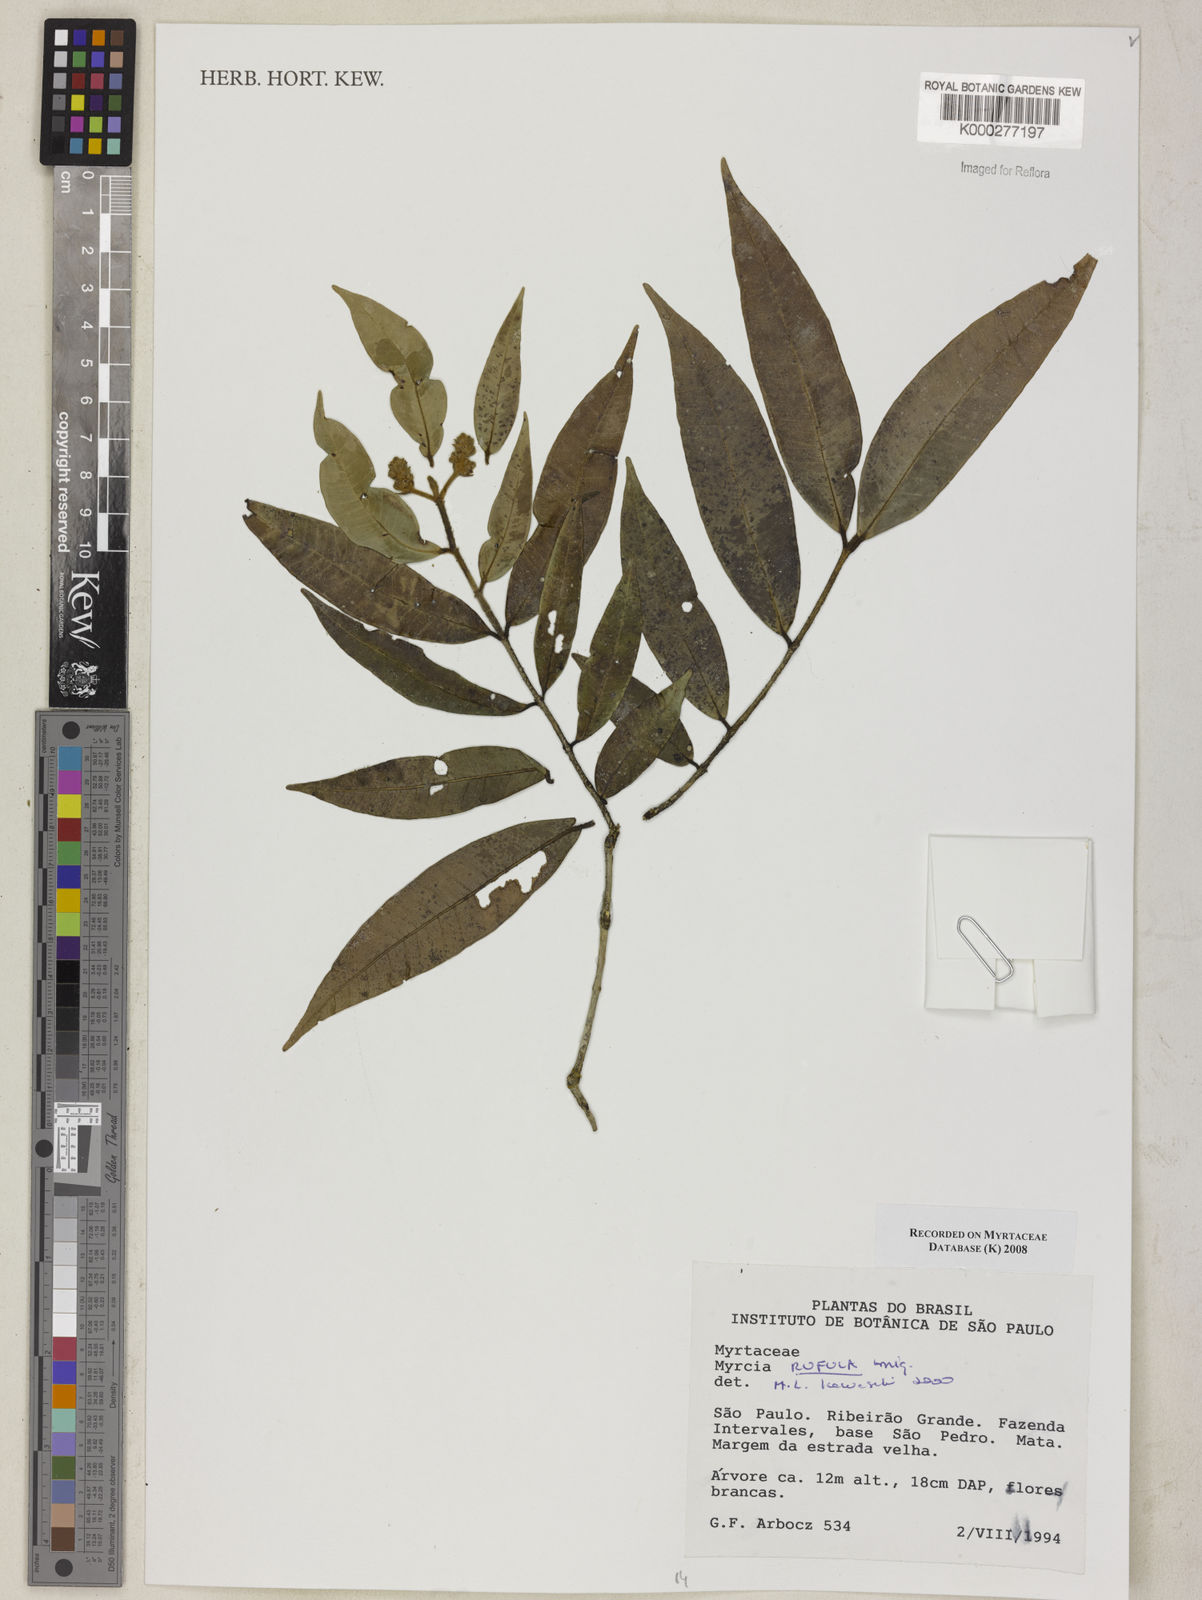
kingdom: Plantae
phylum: Tracheophyta
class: Magnoliopsida
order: Myrtales
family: Myrtaceae
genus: Myrcia
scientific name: Myrcia splendens
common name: Surinam cherry
